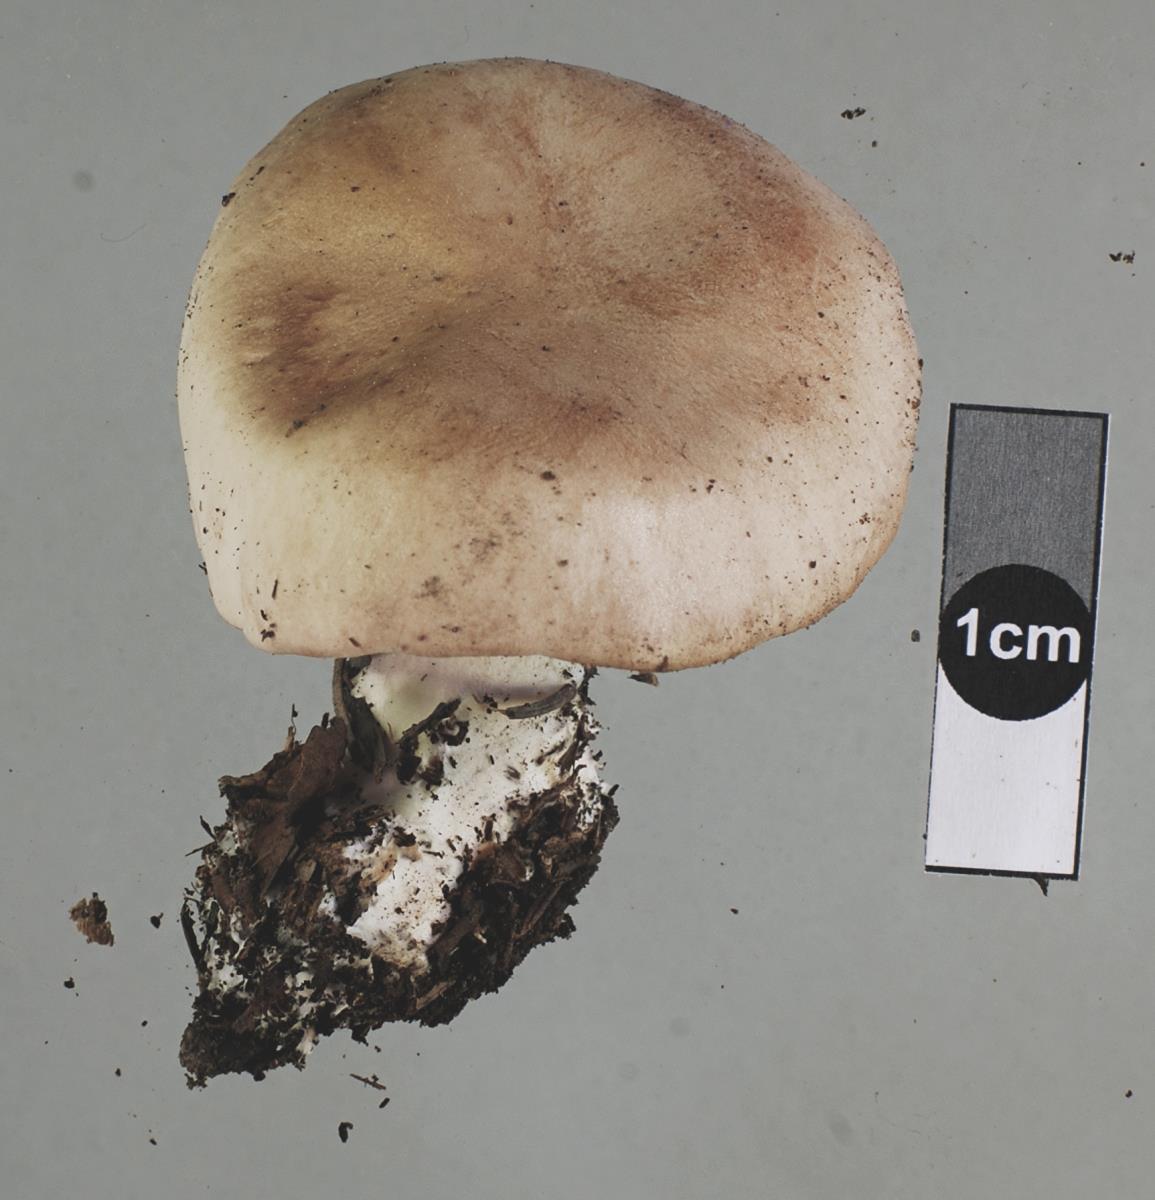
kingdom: Fungi
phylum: Basidiomycota
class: Agaricomycetes
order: Agaricales
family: Entolomataceae
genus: Clitopilus
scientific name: Clitopilus piperitus
